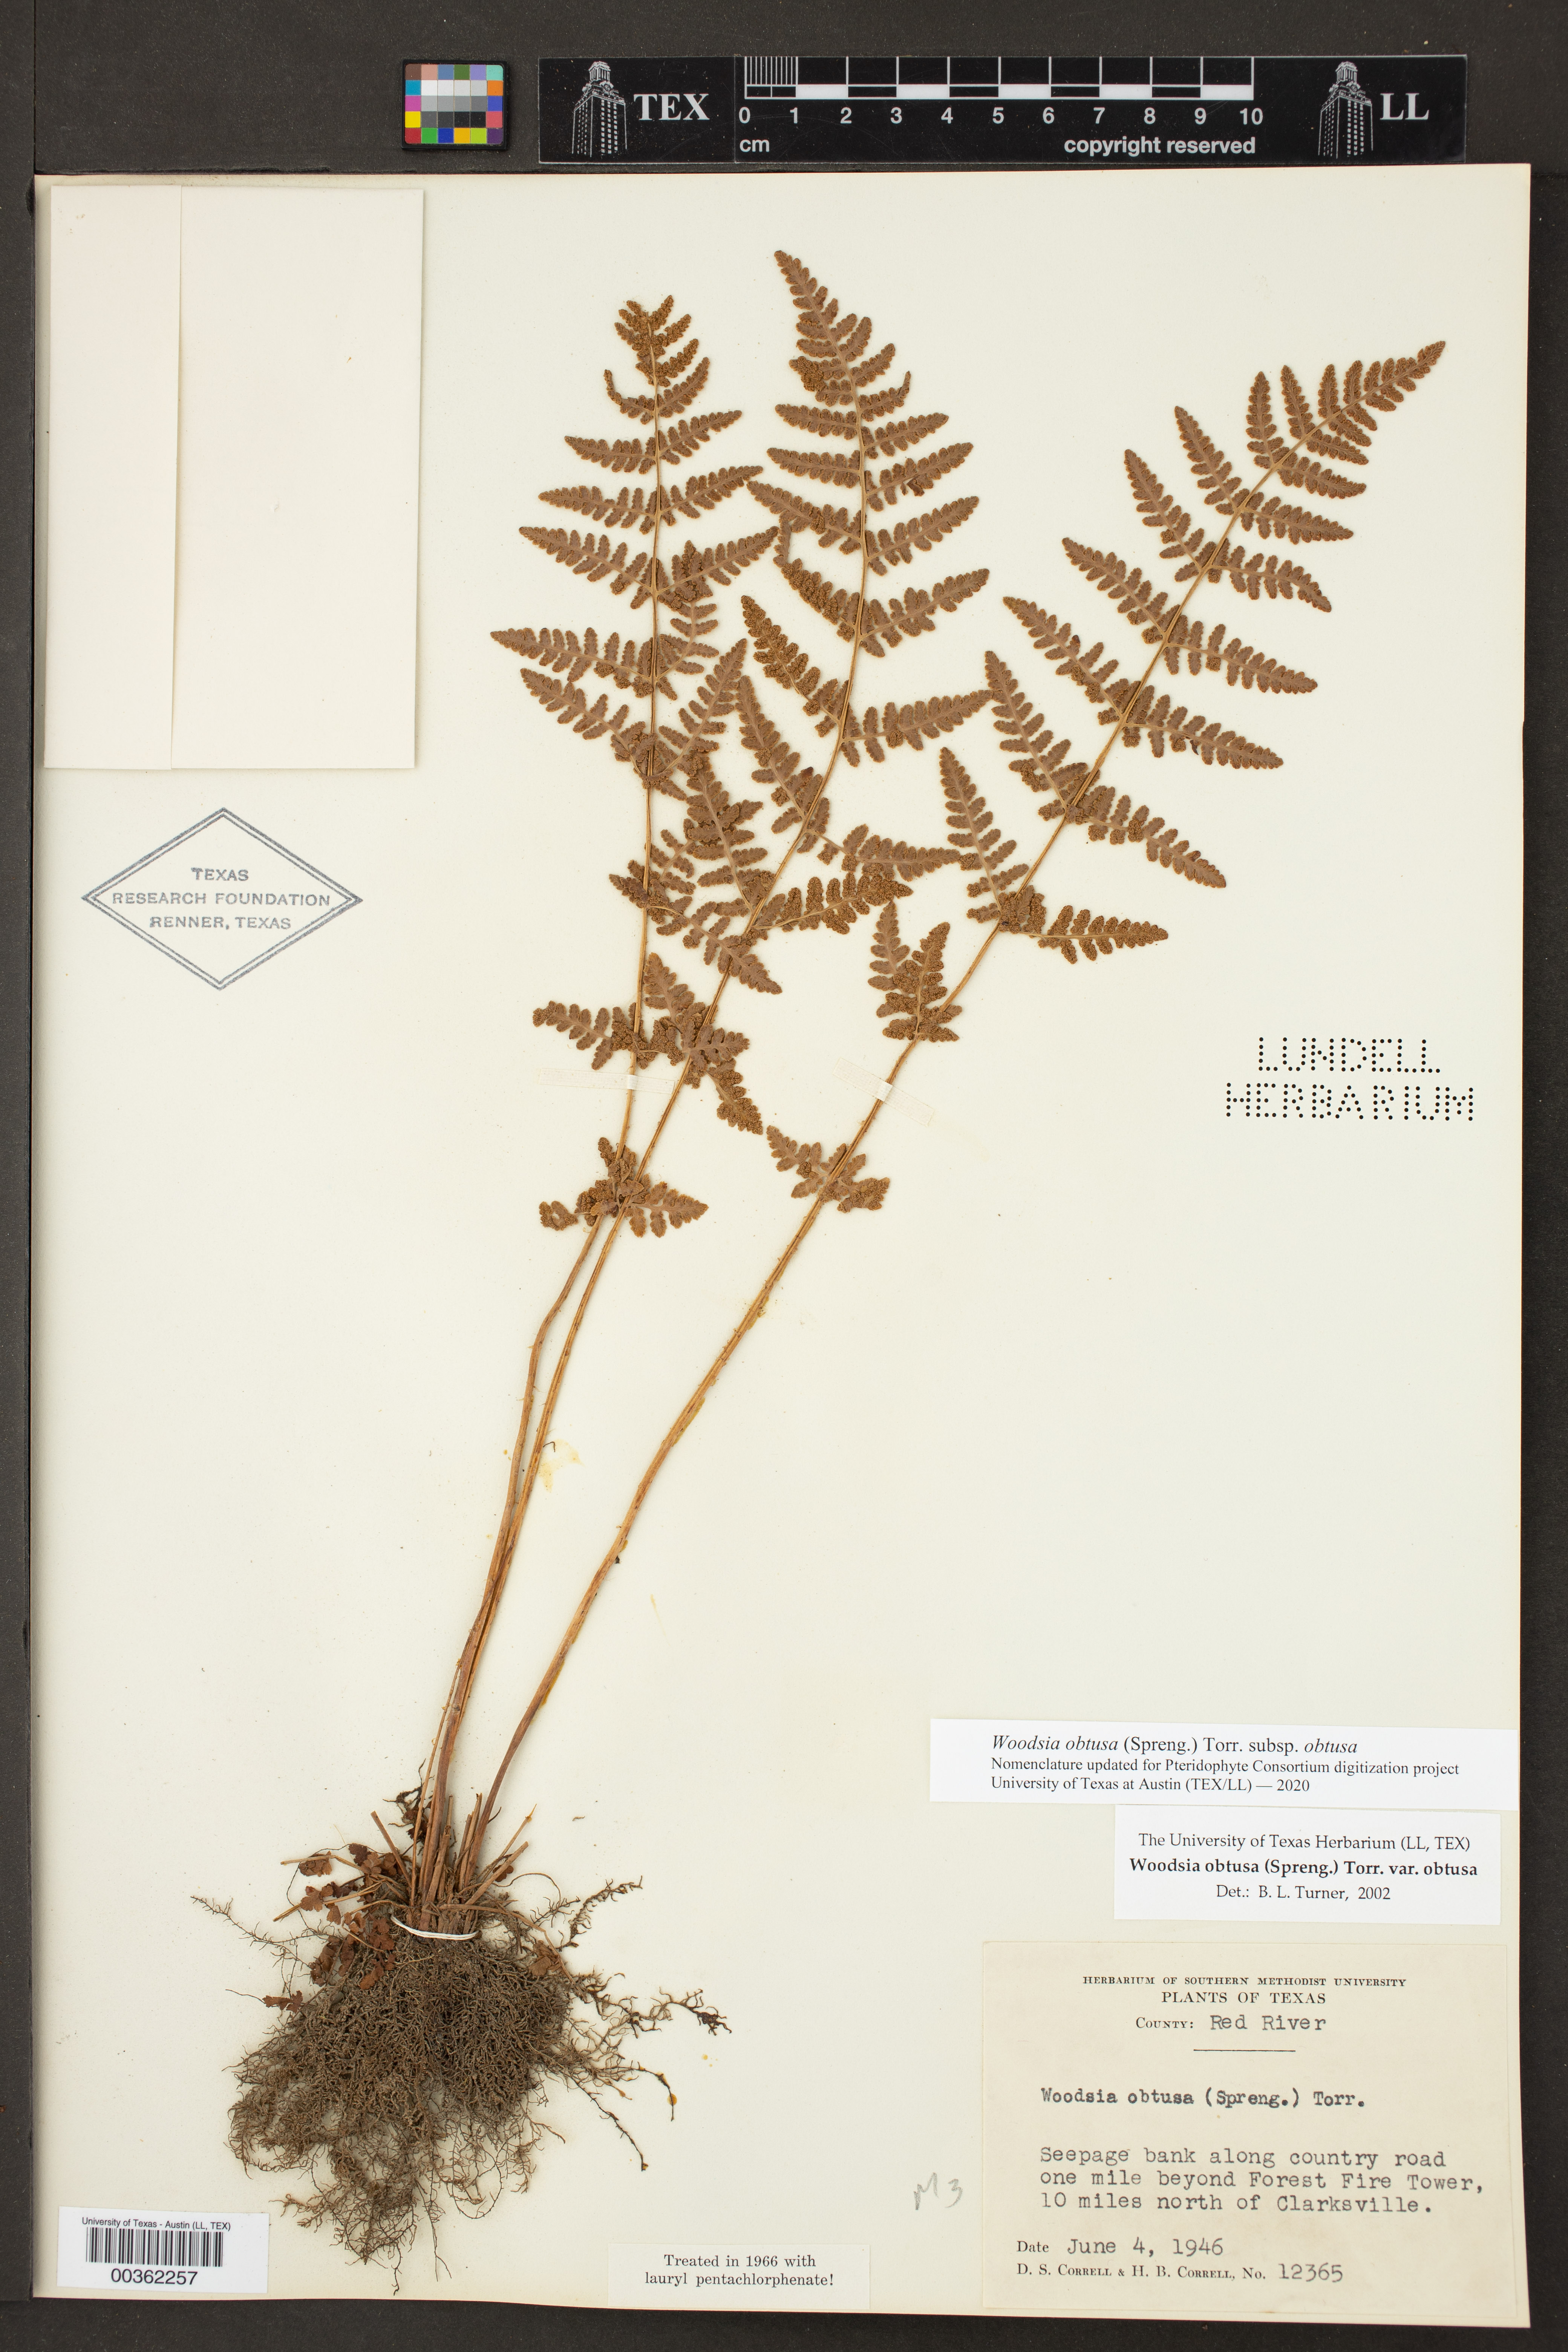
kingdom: Plantae
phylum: Tracheophyta
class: Polypodiopsida
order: Polypodiales
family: Woodsiaceae
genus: Physematium
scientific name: Physematium obtusum
